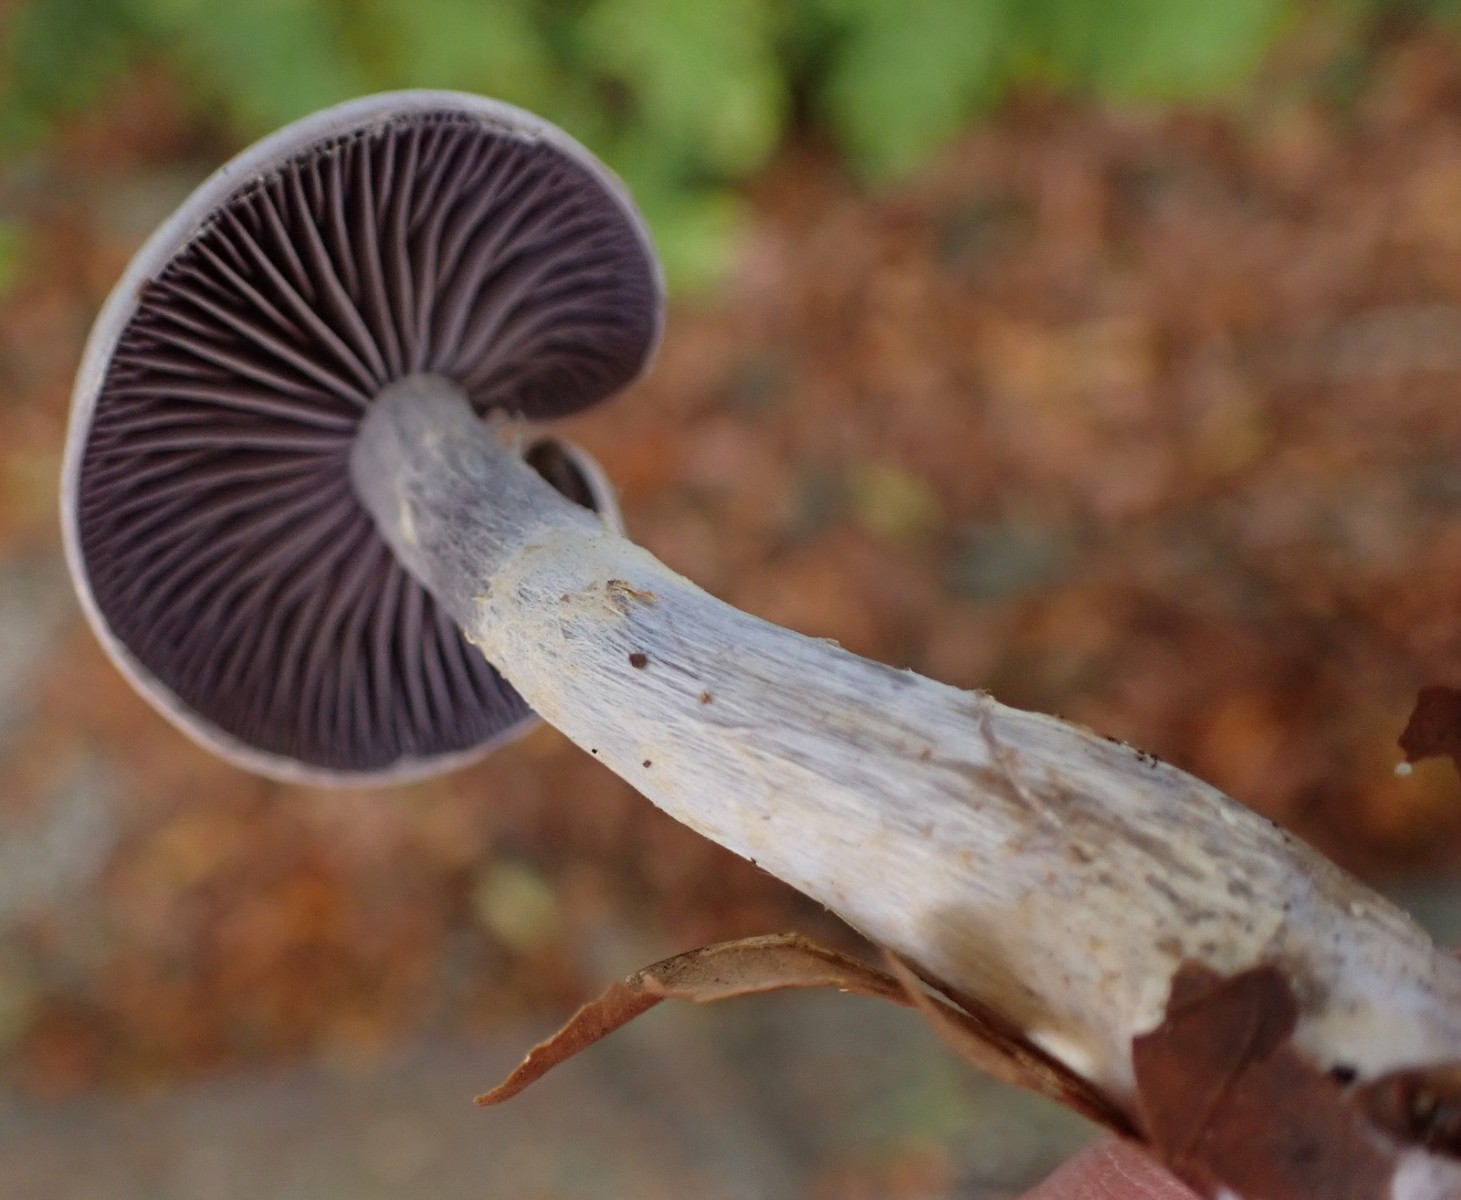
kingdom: Fungi
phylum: Basidiomycota
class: Agaricomycetes
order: Agaricales
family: Cortinariaceae
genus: Cortinarius
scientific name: Cortinarius
